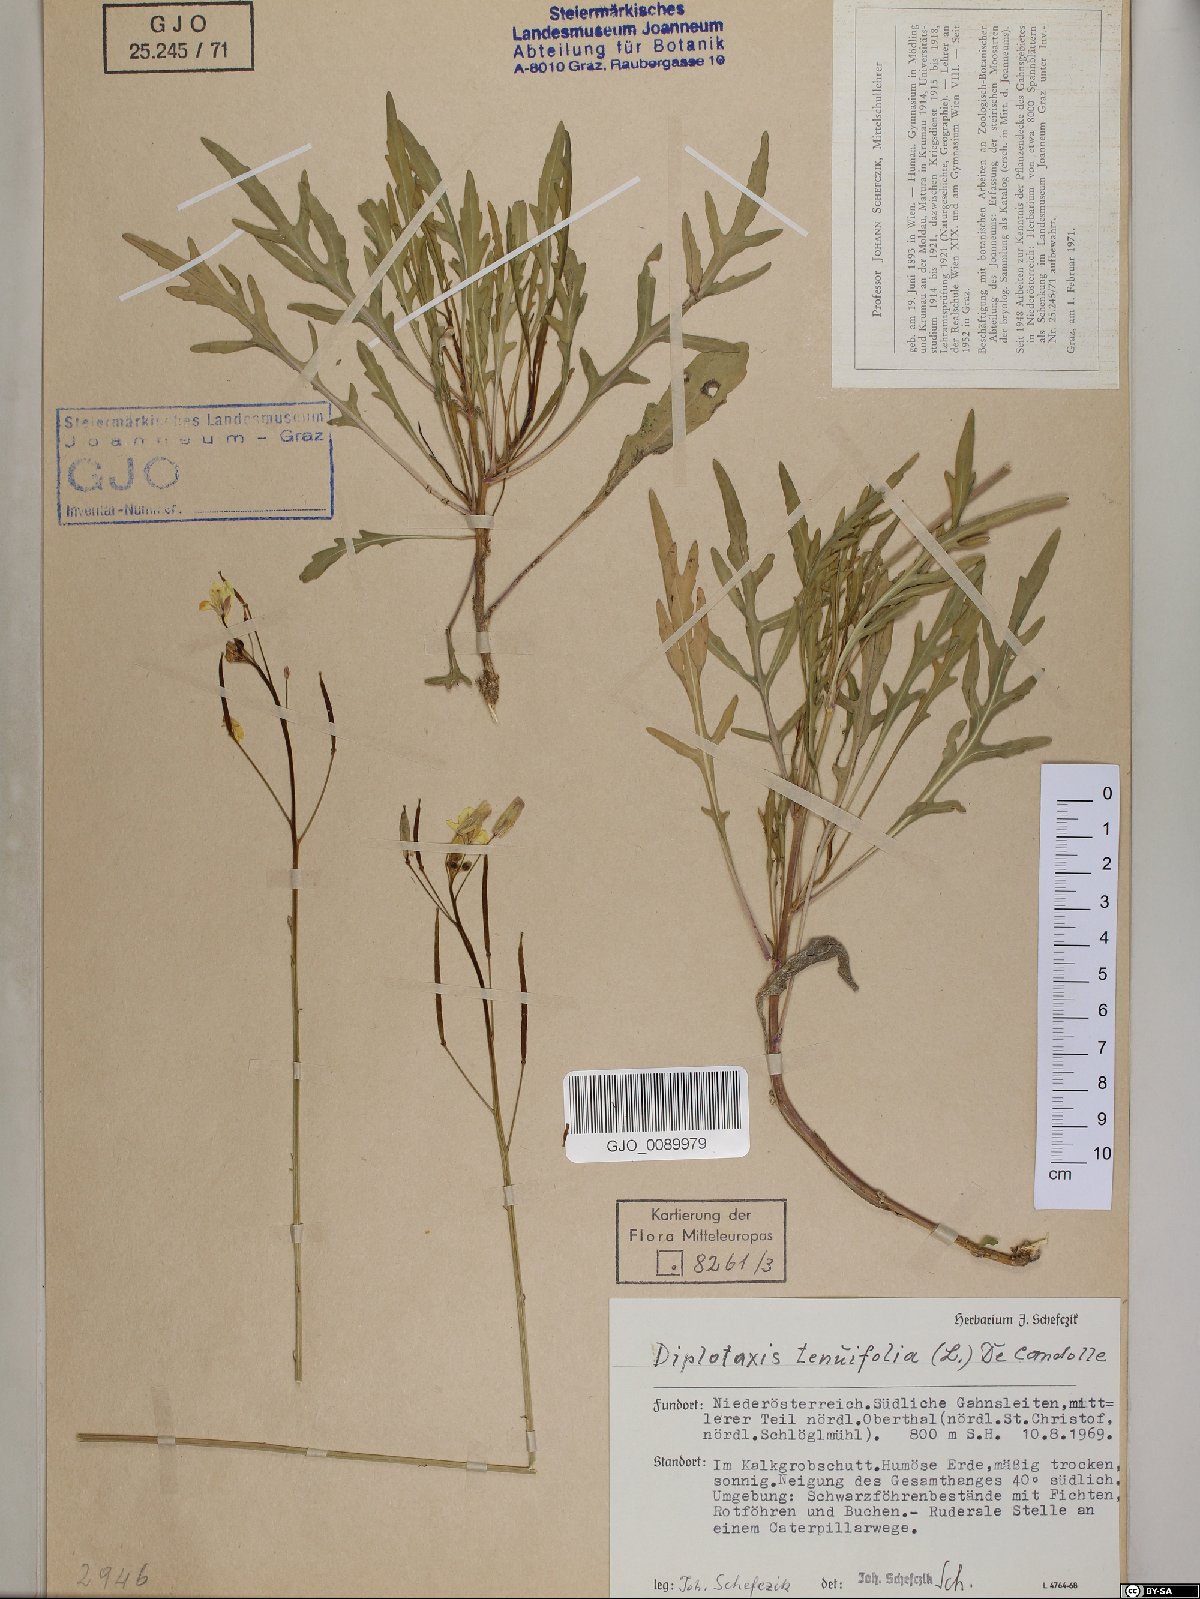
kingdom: Plantae
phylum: Tracheophyta
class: Magnoliopsida
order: Brassicales
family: Brassicaceae
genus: Diplotaxis
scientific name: Diplotaxis tenuifolia
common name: Perennial wall-rocket
